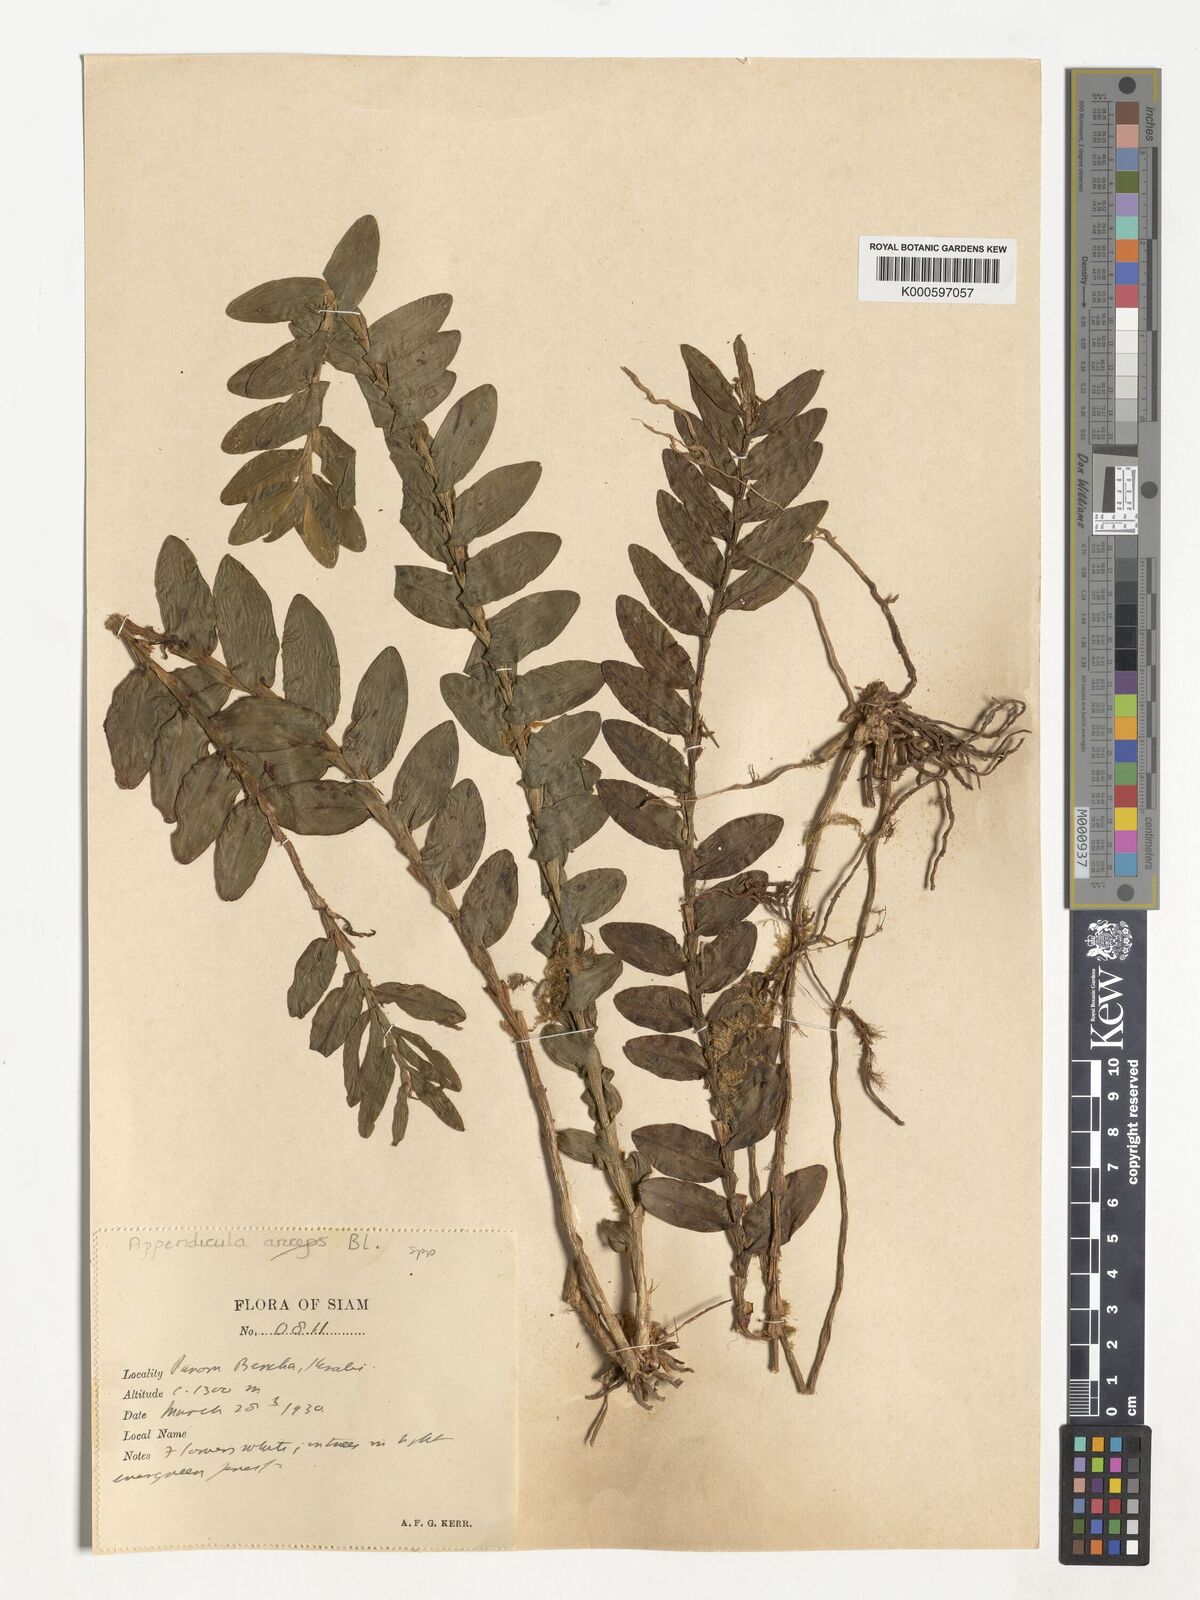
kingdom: Plantae
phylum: Tracheophyta
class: Liliopsida
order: Asparagales
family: Orchidaceae
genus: Appendicula
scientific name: Appendicula
